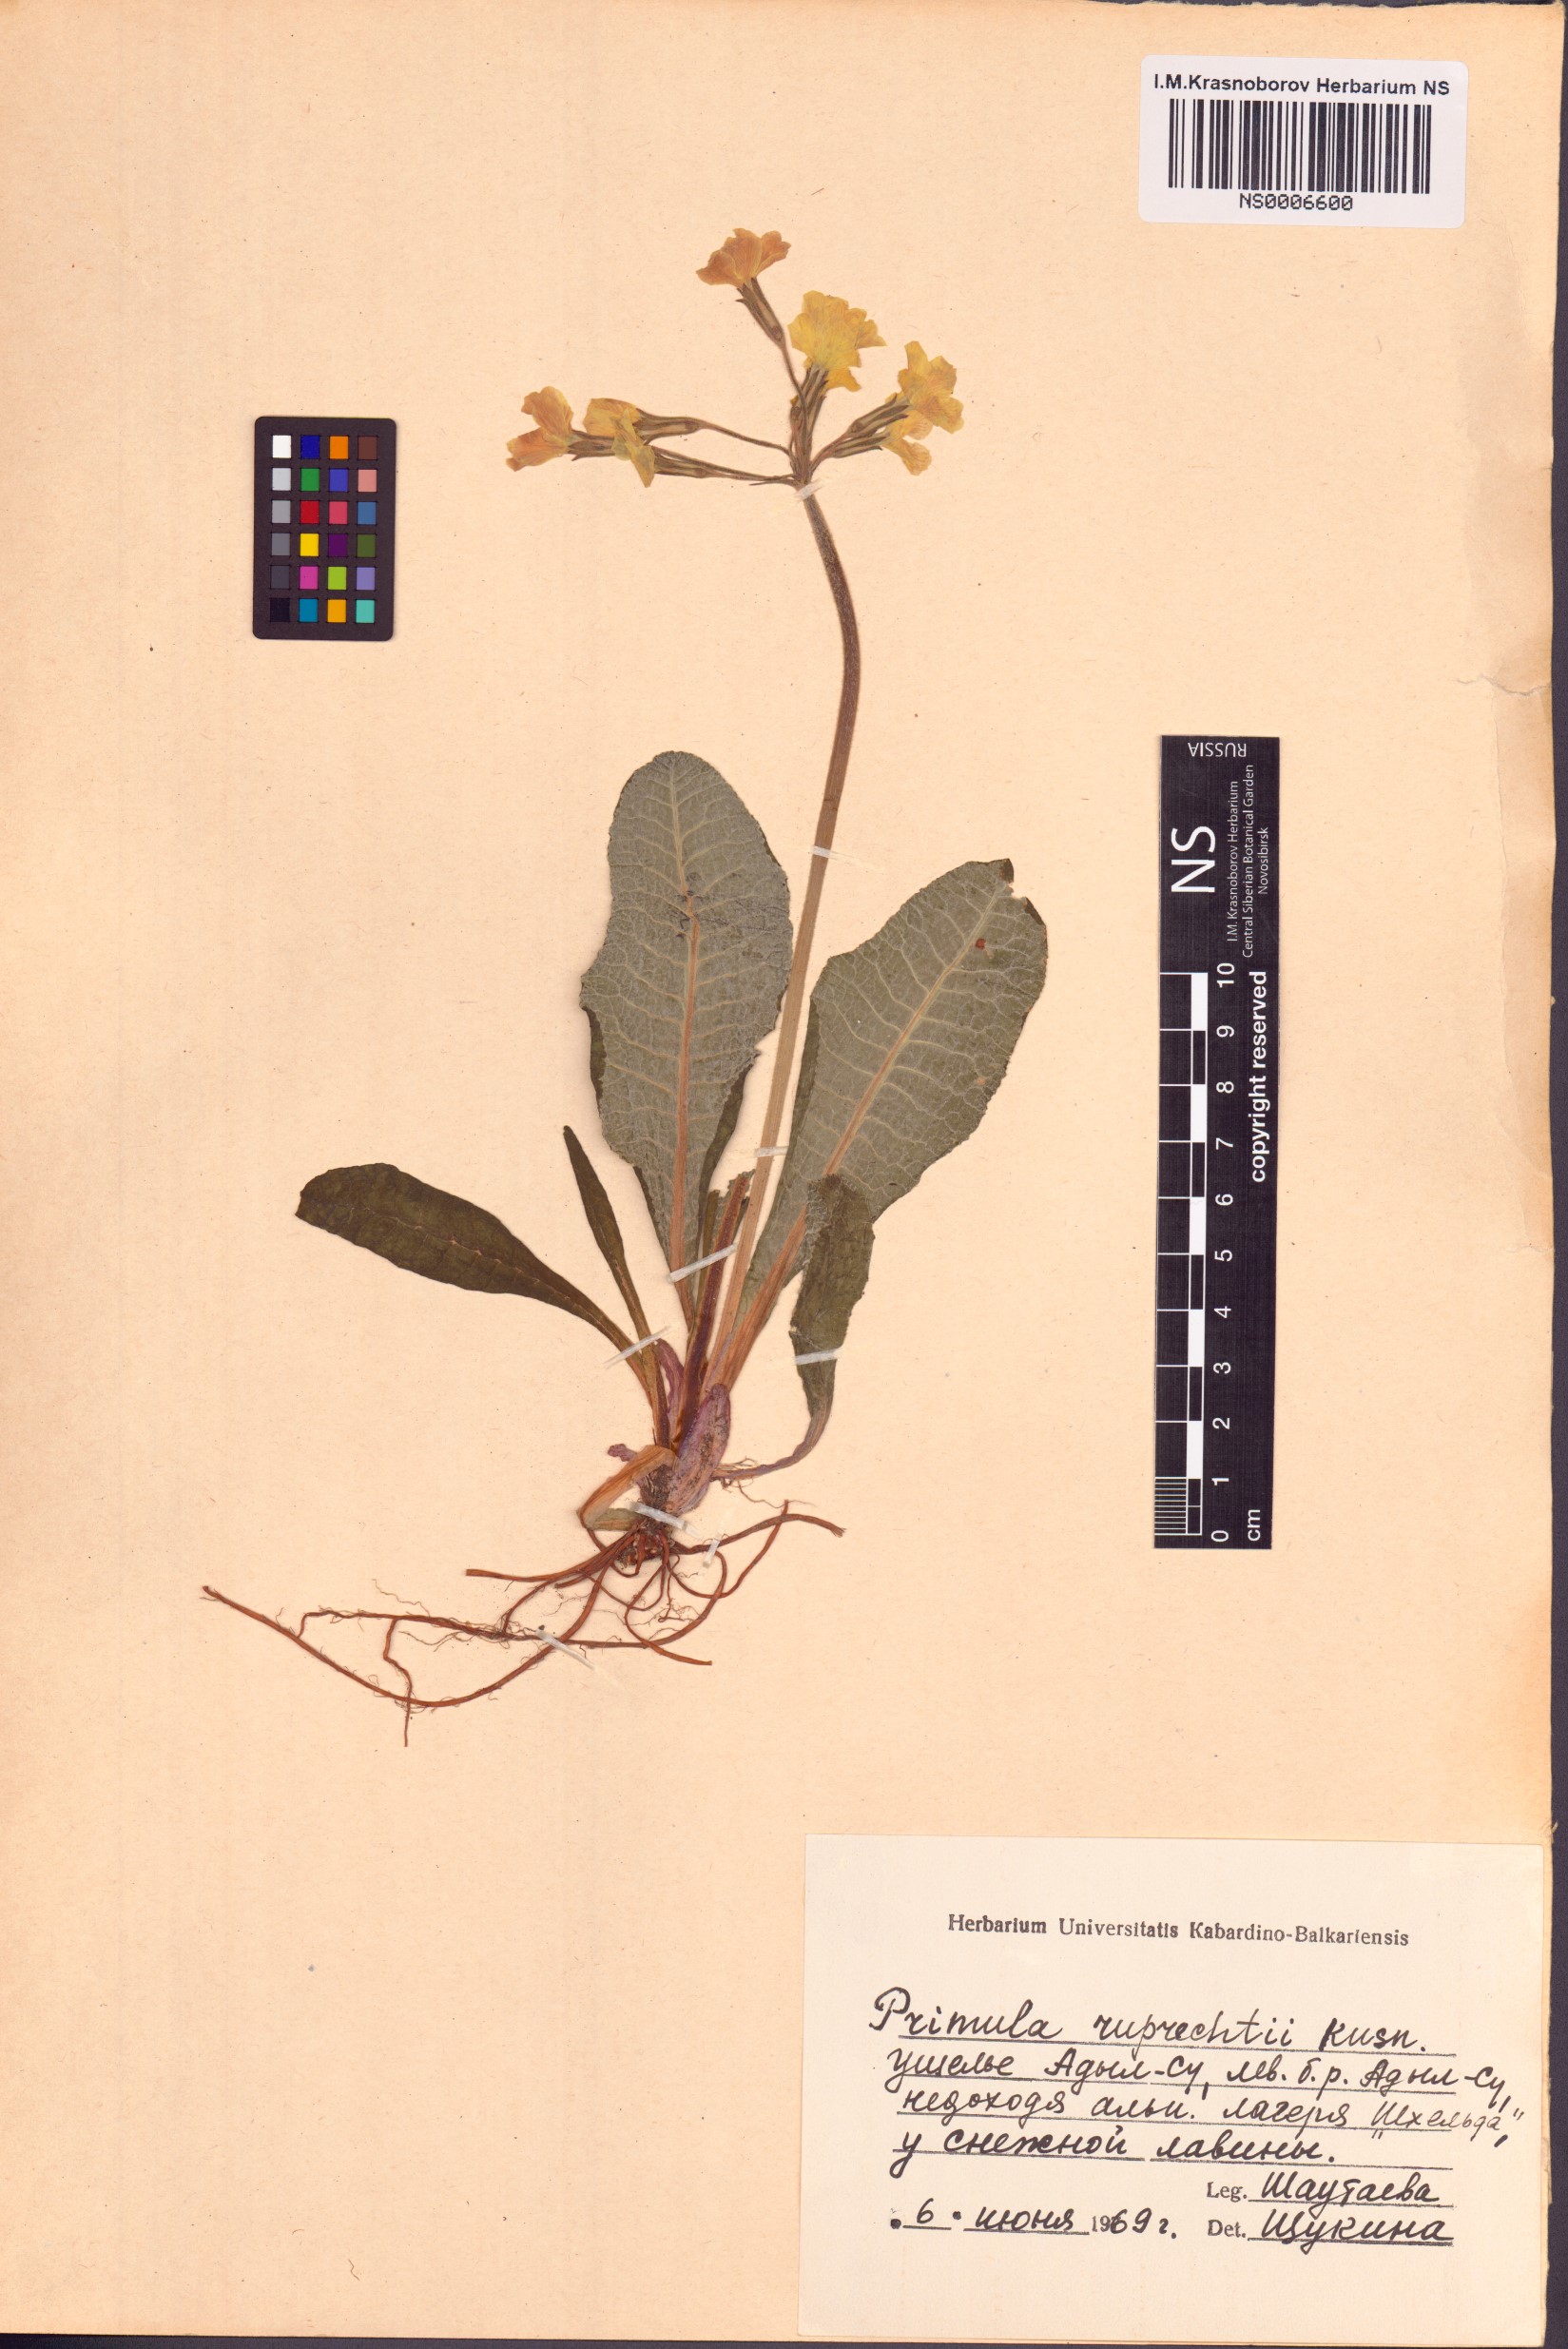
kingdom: Plantae
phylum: Tracheophyta
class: Magnoliopsida
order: Ericales
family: Primulaceae
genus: Primula
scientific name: Primula ruprechtii
